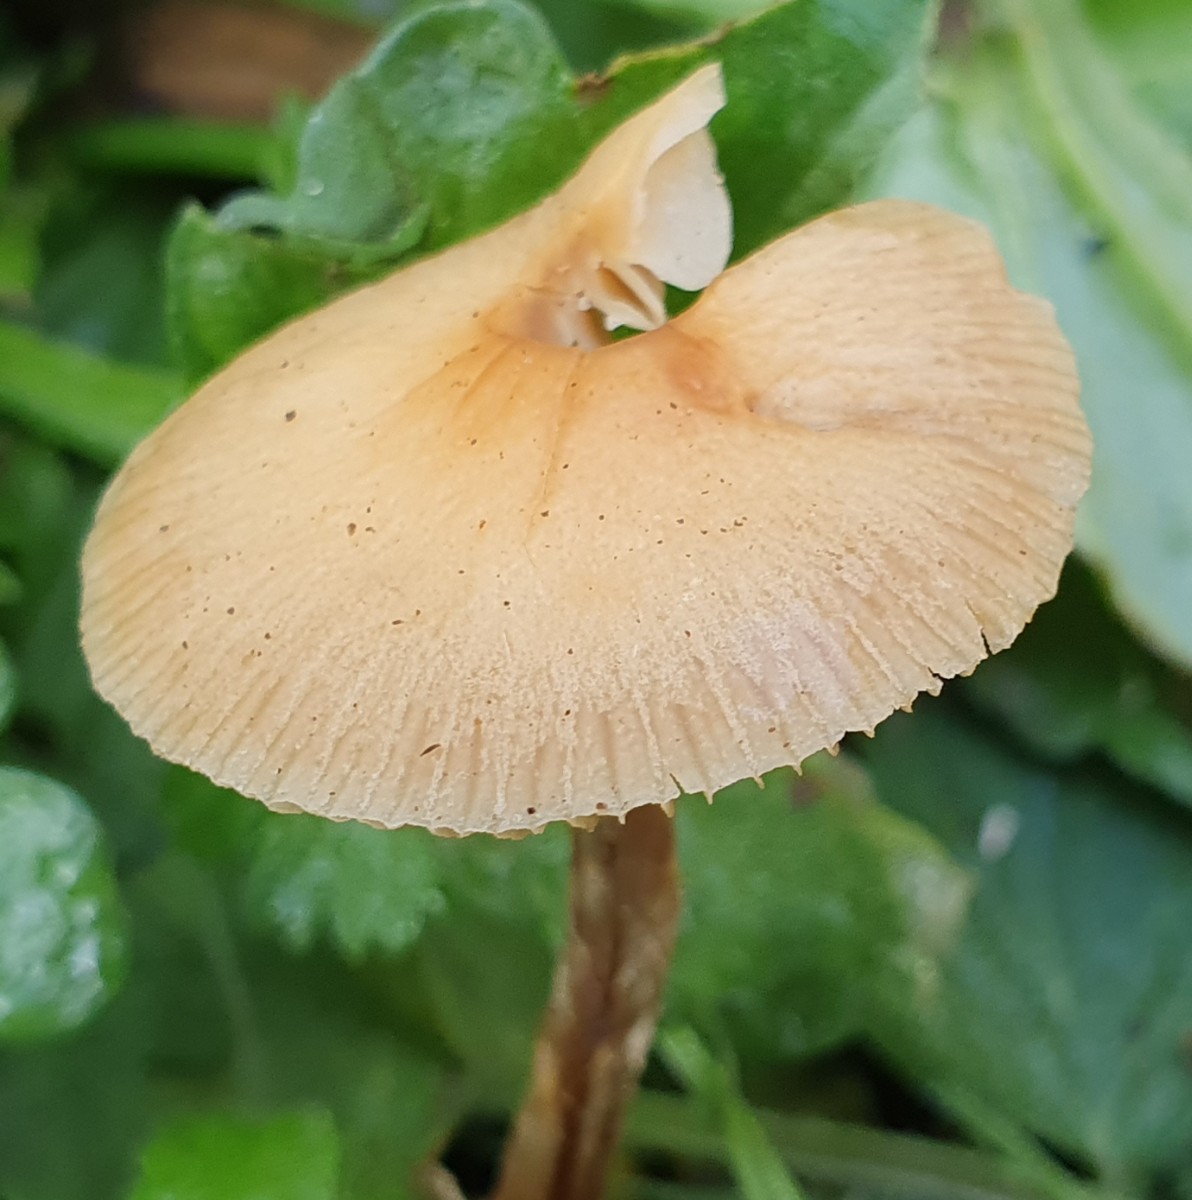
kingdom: Fungi
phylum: Basidiomycota
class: Agaricomycetes
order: Agaricales
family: Bolbitiaceae
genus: Pholiotina
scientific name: Pholiotina
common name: dansehat
